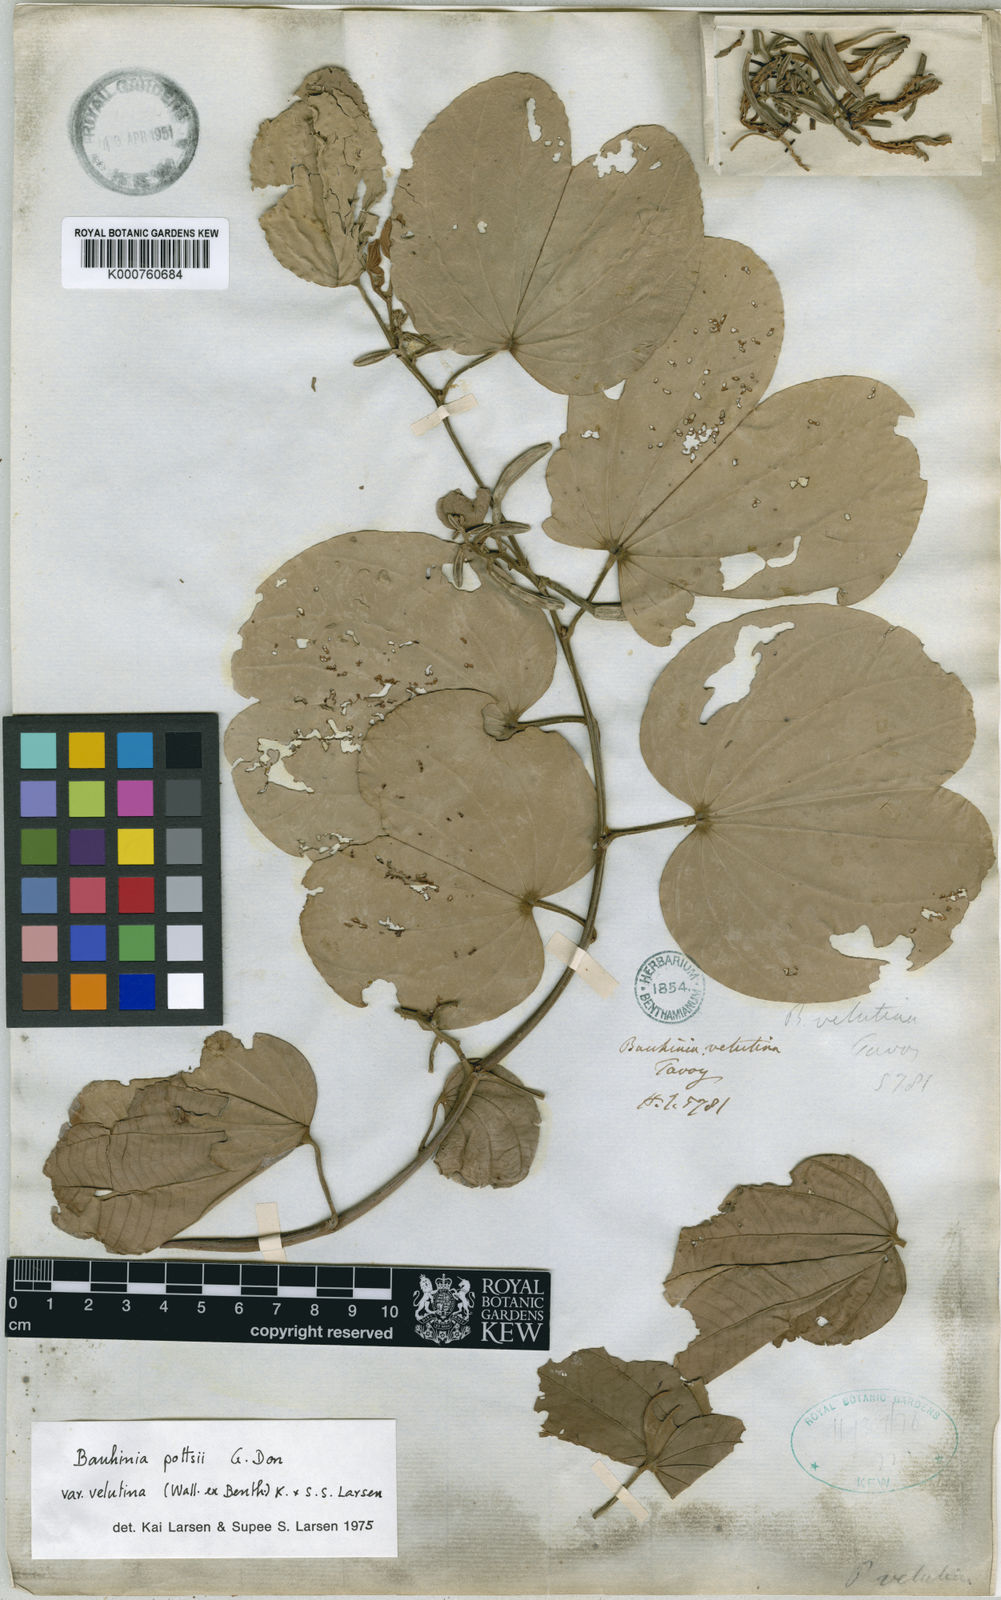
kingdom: Plantae
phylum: Tracheophyta
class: Magnoliopsida
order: Fabales
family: Fabaceae
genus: Bauhinia
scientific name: Bauhinia pottsii
